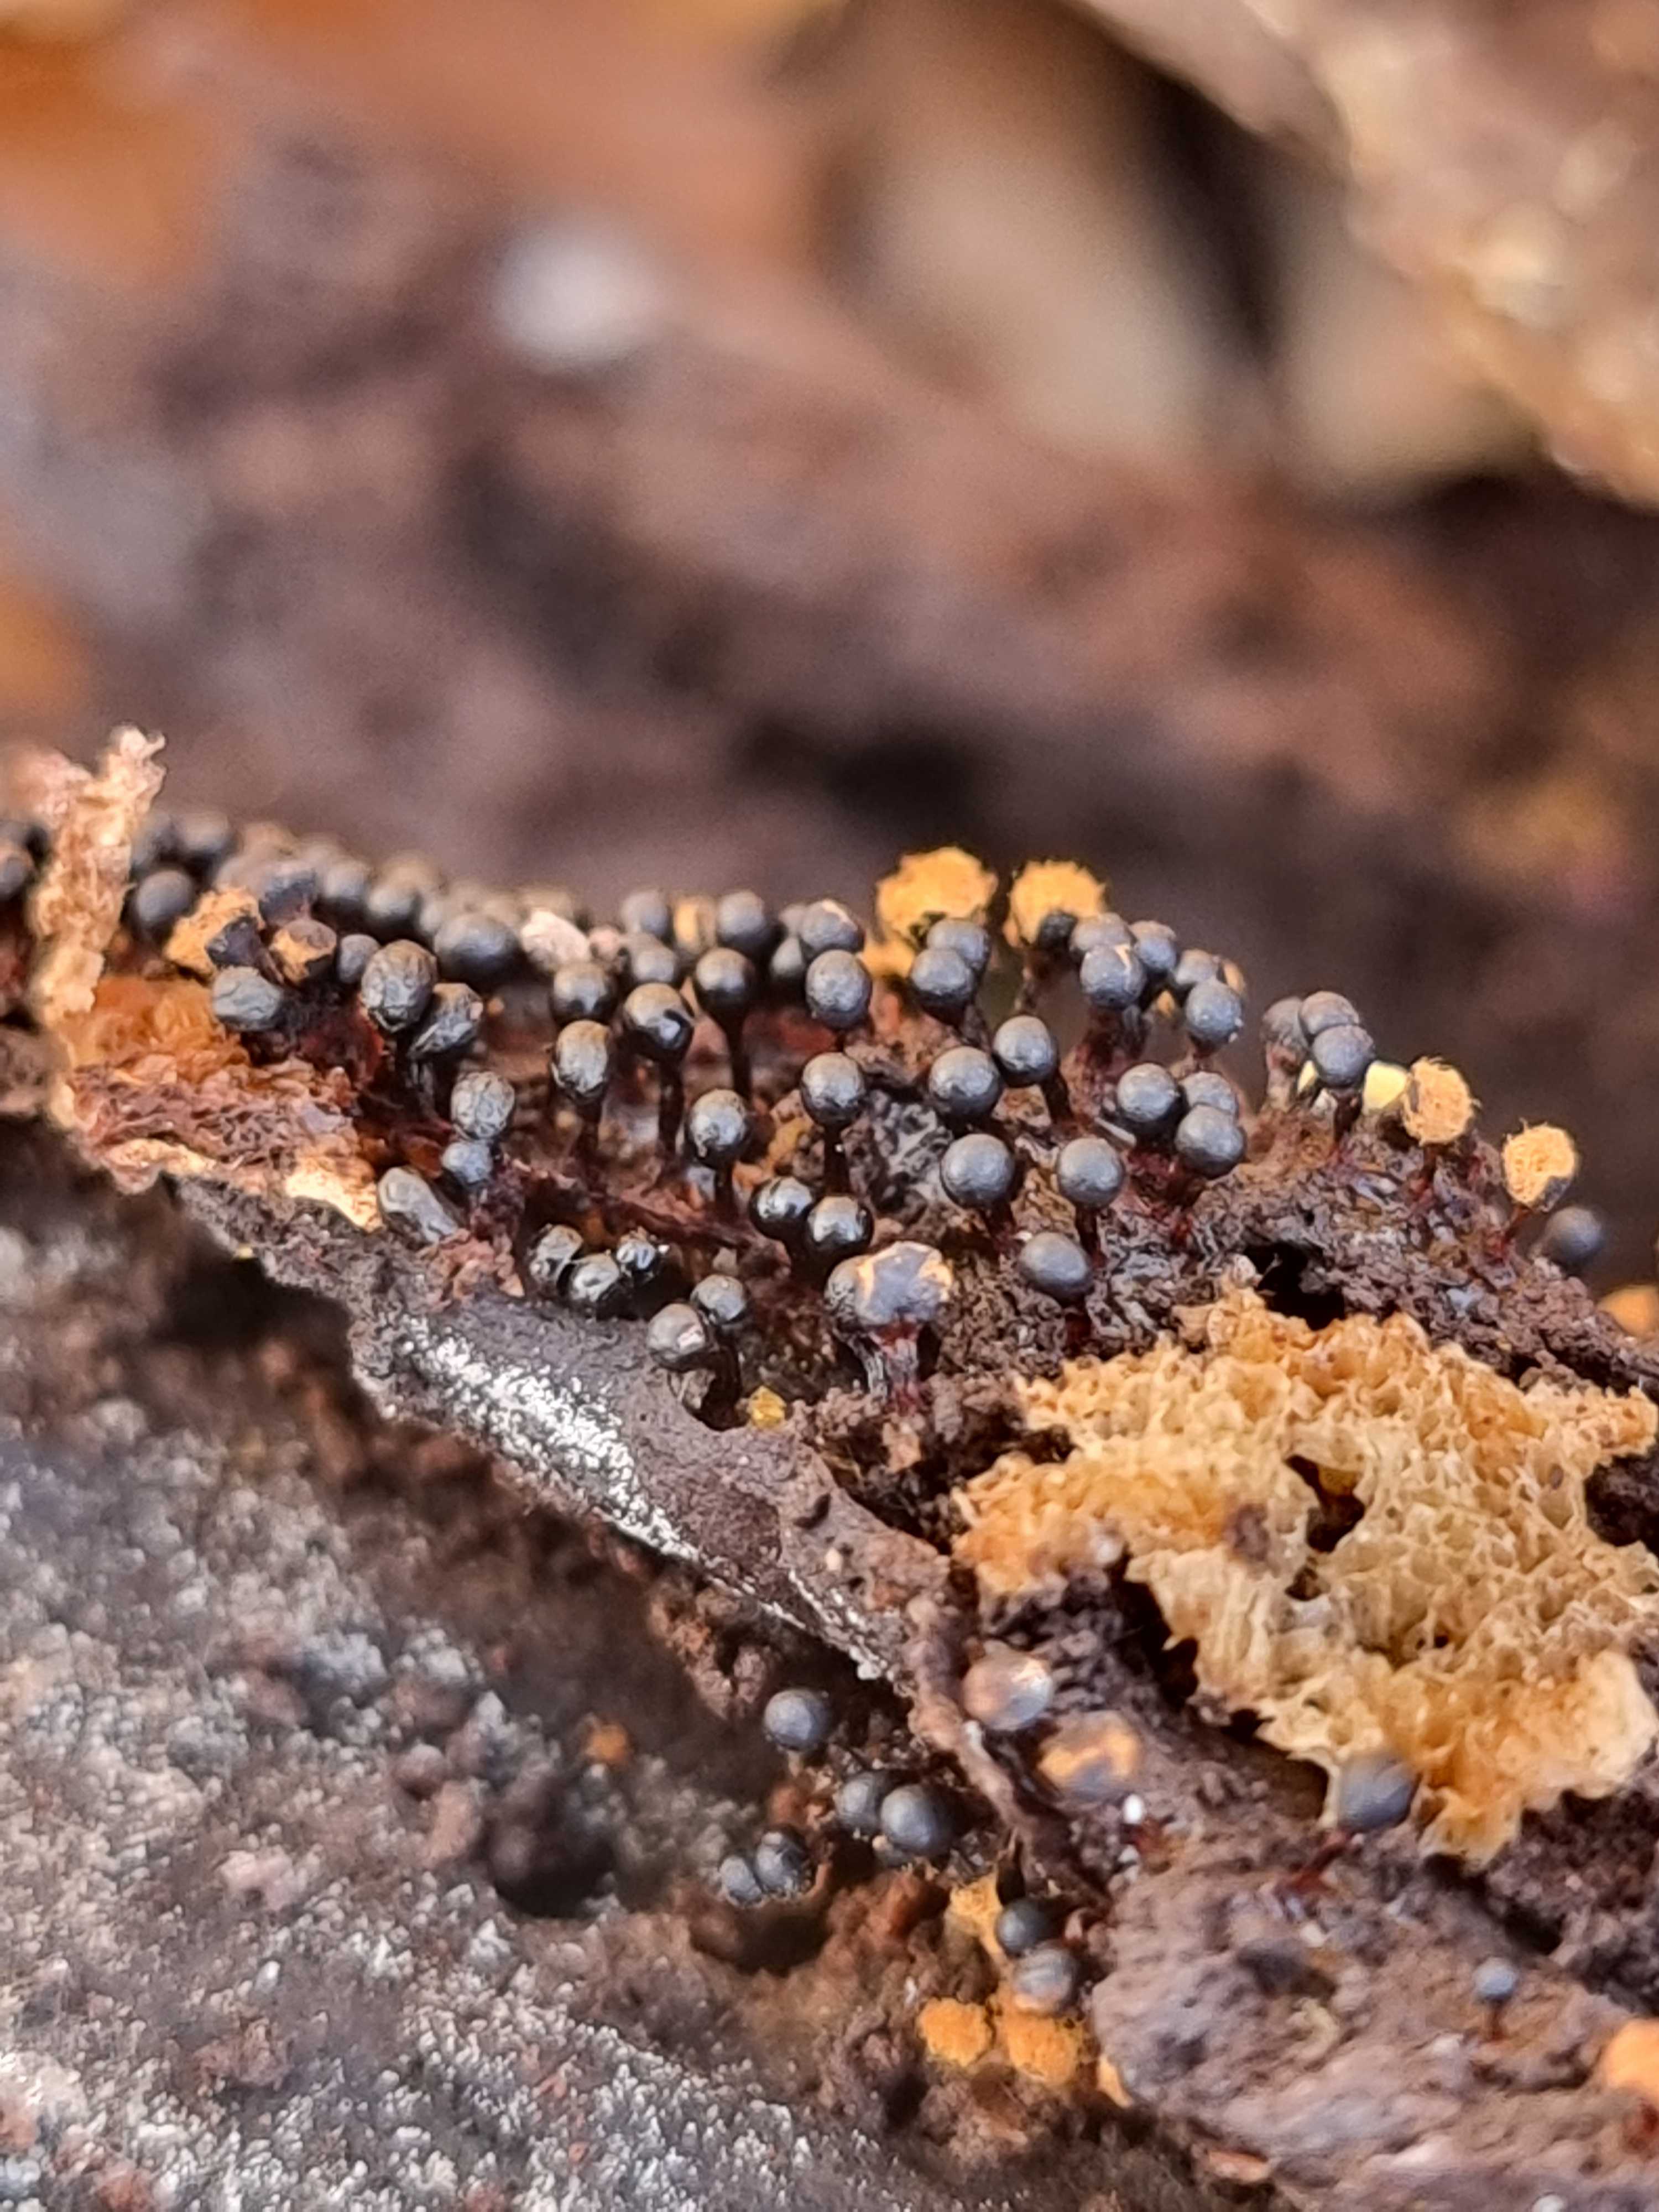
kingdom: Protozoa
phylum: Mycetozoa
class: Myxomycetes
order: Trichiales
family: Trichiaceae
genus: Metatrichia
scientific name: Metatrichia floriformis
